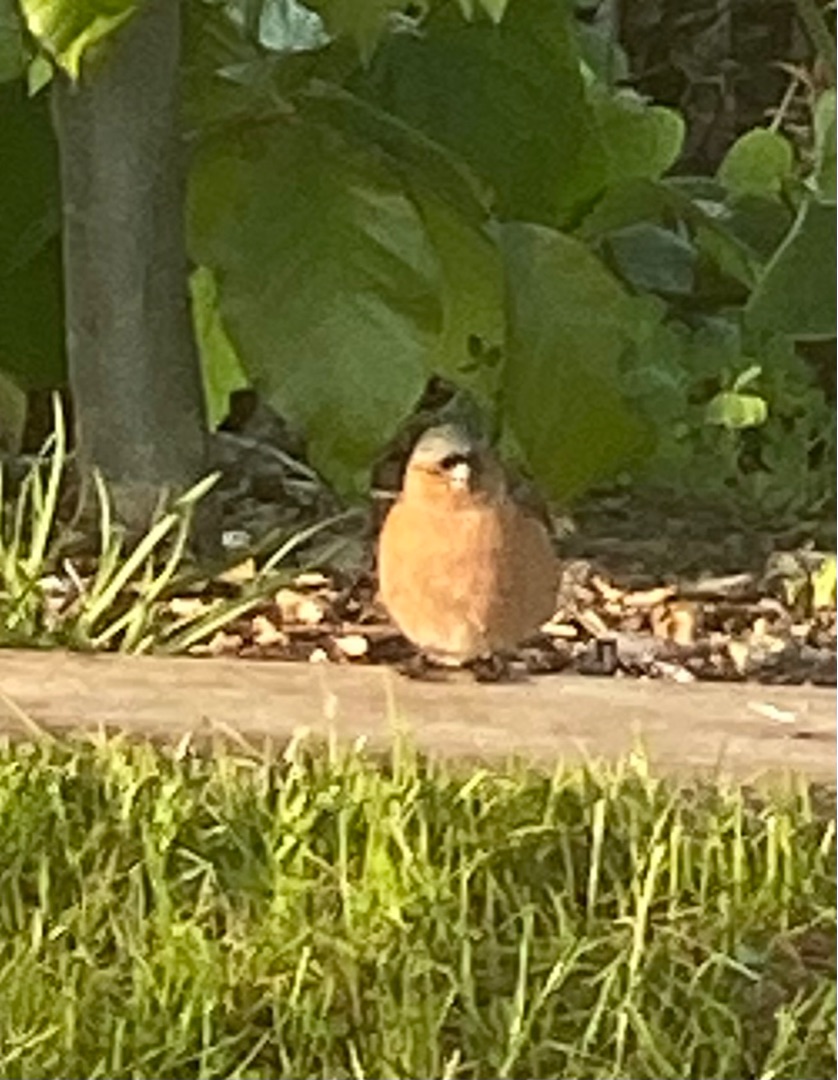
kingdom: Animalia
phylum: Chordata
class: Aves
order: Passeriformes
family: Fringillidae
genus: Fringilla
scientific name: Fringilla coelebs
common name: Bogfinke
